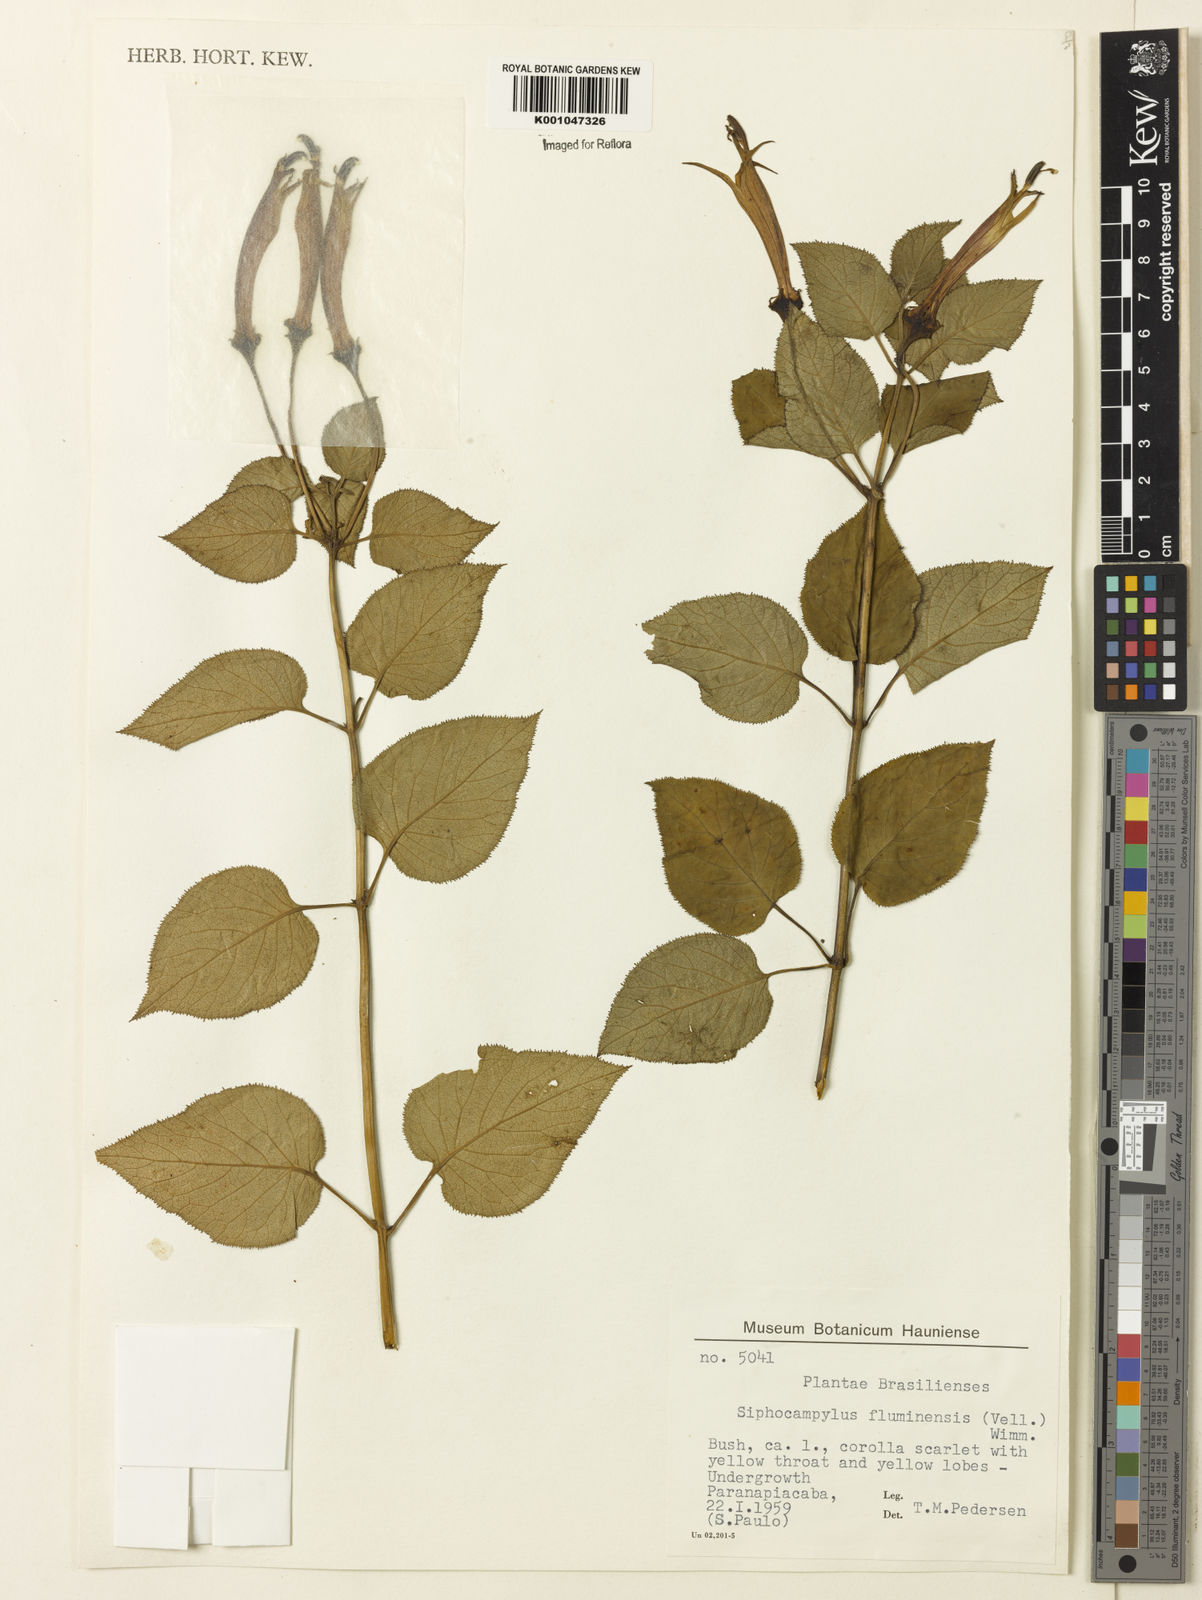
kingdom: Plantae
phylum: Tracheophyta
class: Magnoliopsida
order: Asterales
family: Campanulaceae
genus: Siphocampylus
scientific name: Siphocampylus fluminensis
